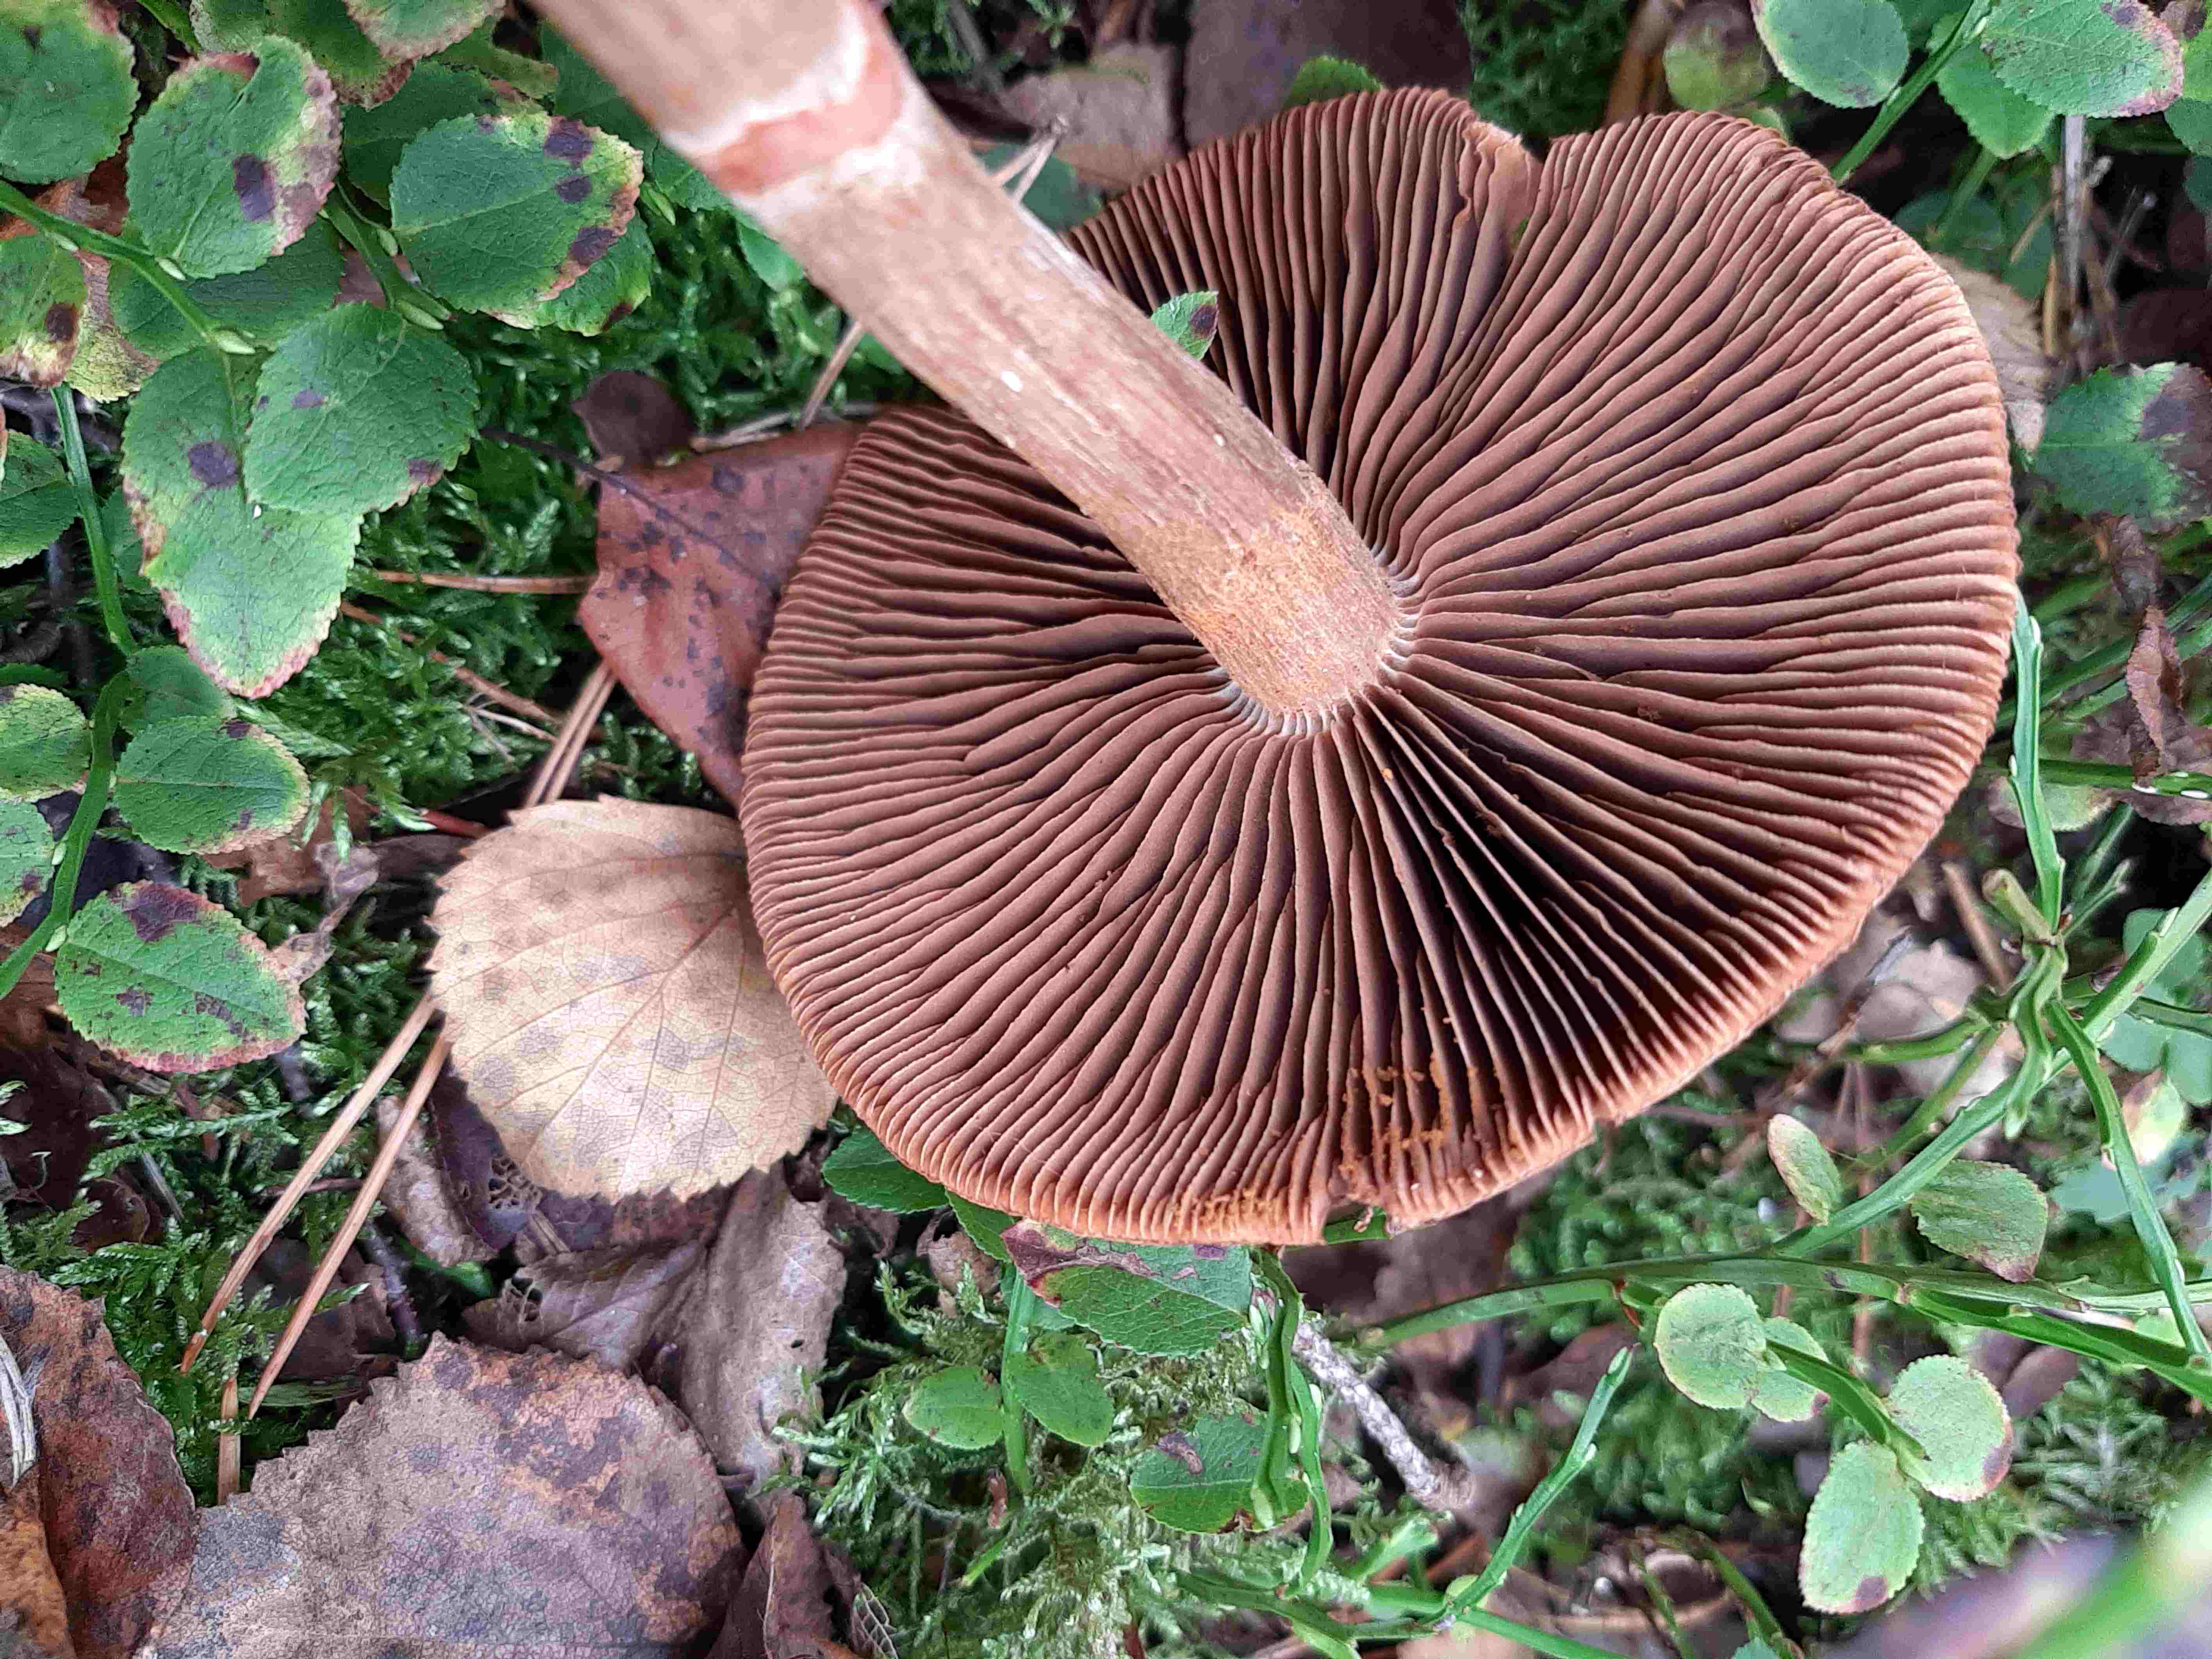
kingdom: Fungi
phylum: Basidiomycota
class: Agaricomycetes
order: Agaricales
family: Cortinariaceae
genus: Cortinarius
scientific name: Cortinarius armillatus
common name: cinnoberbæltet slørhat
